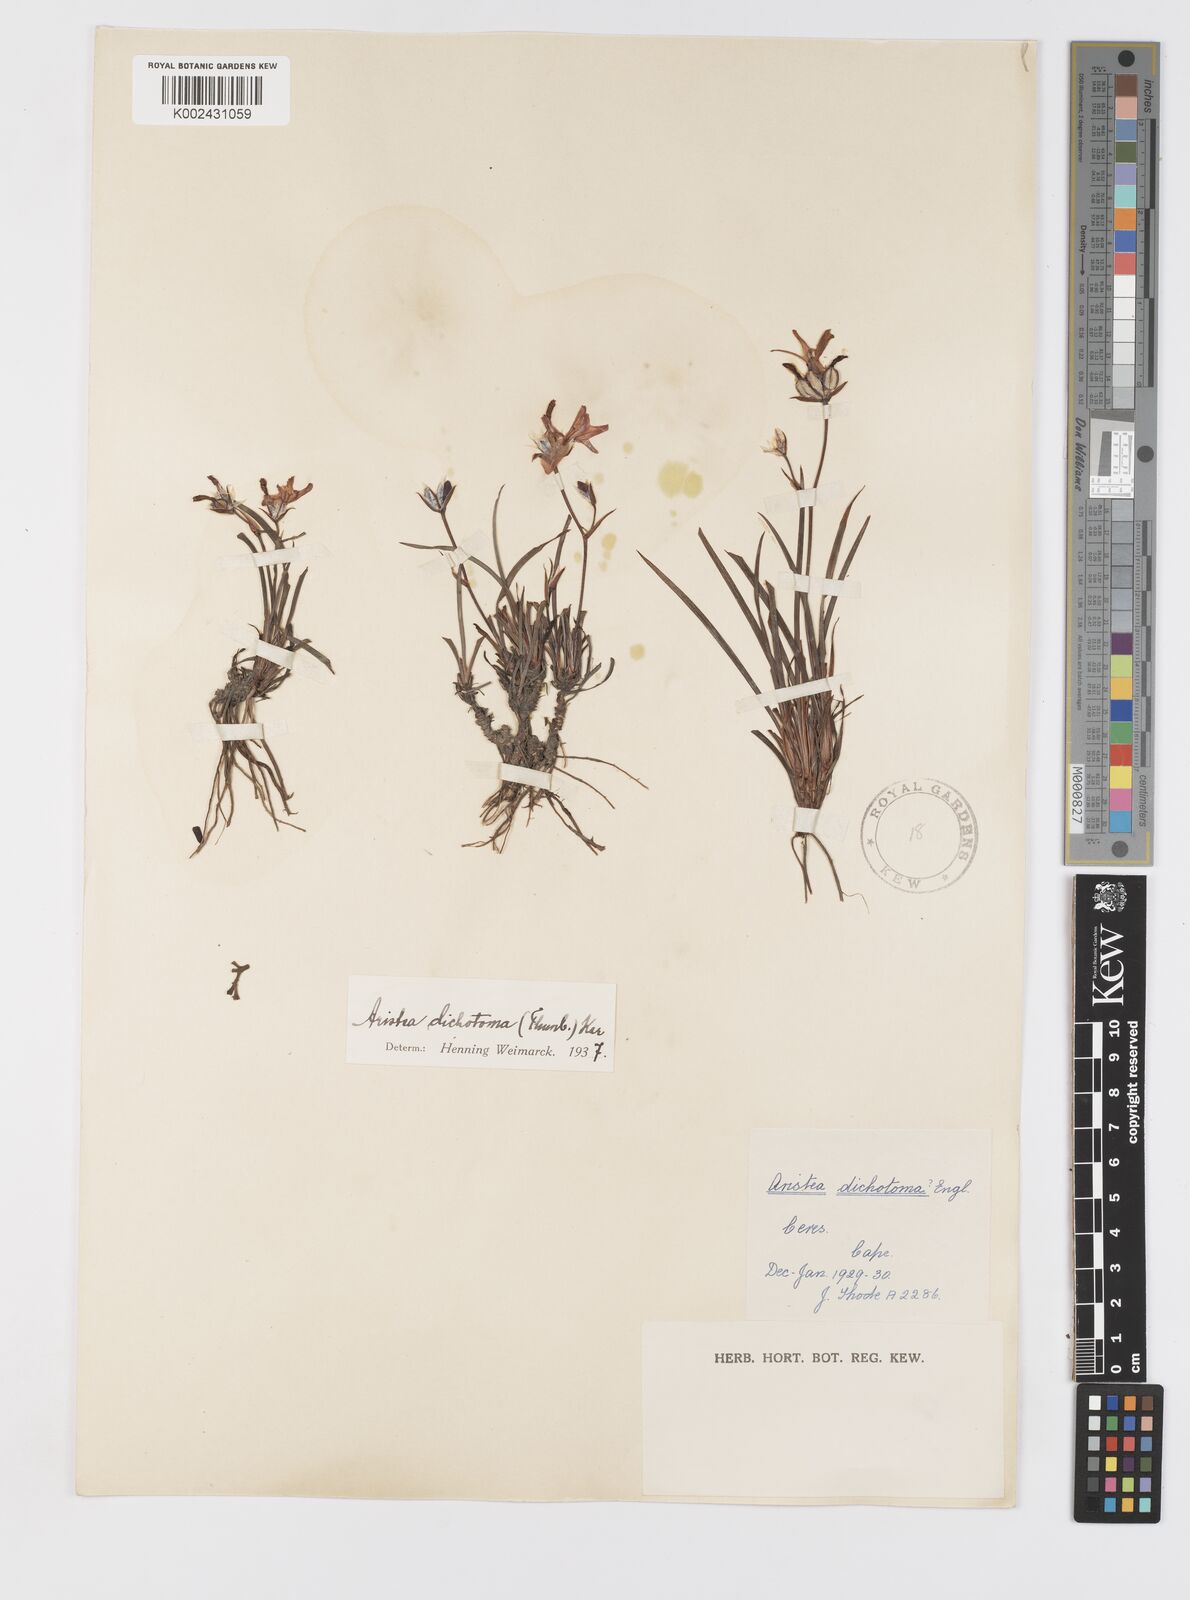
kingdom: Plantae
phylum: Tracheophyta
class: Liliopsida
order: Asparagales
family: Iridaceae
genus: Aristea
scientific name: Aristea dichotoma
